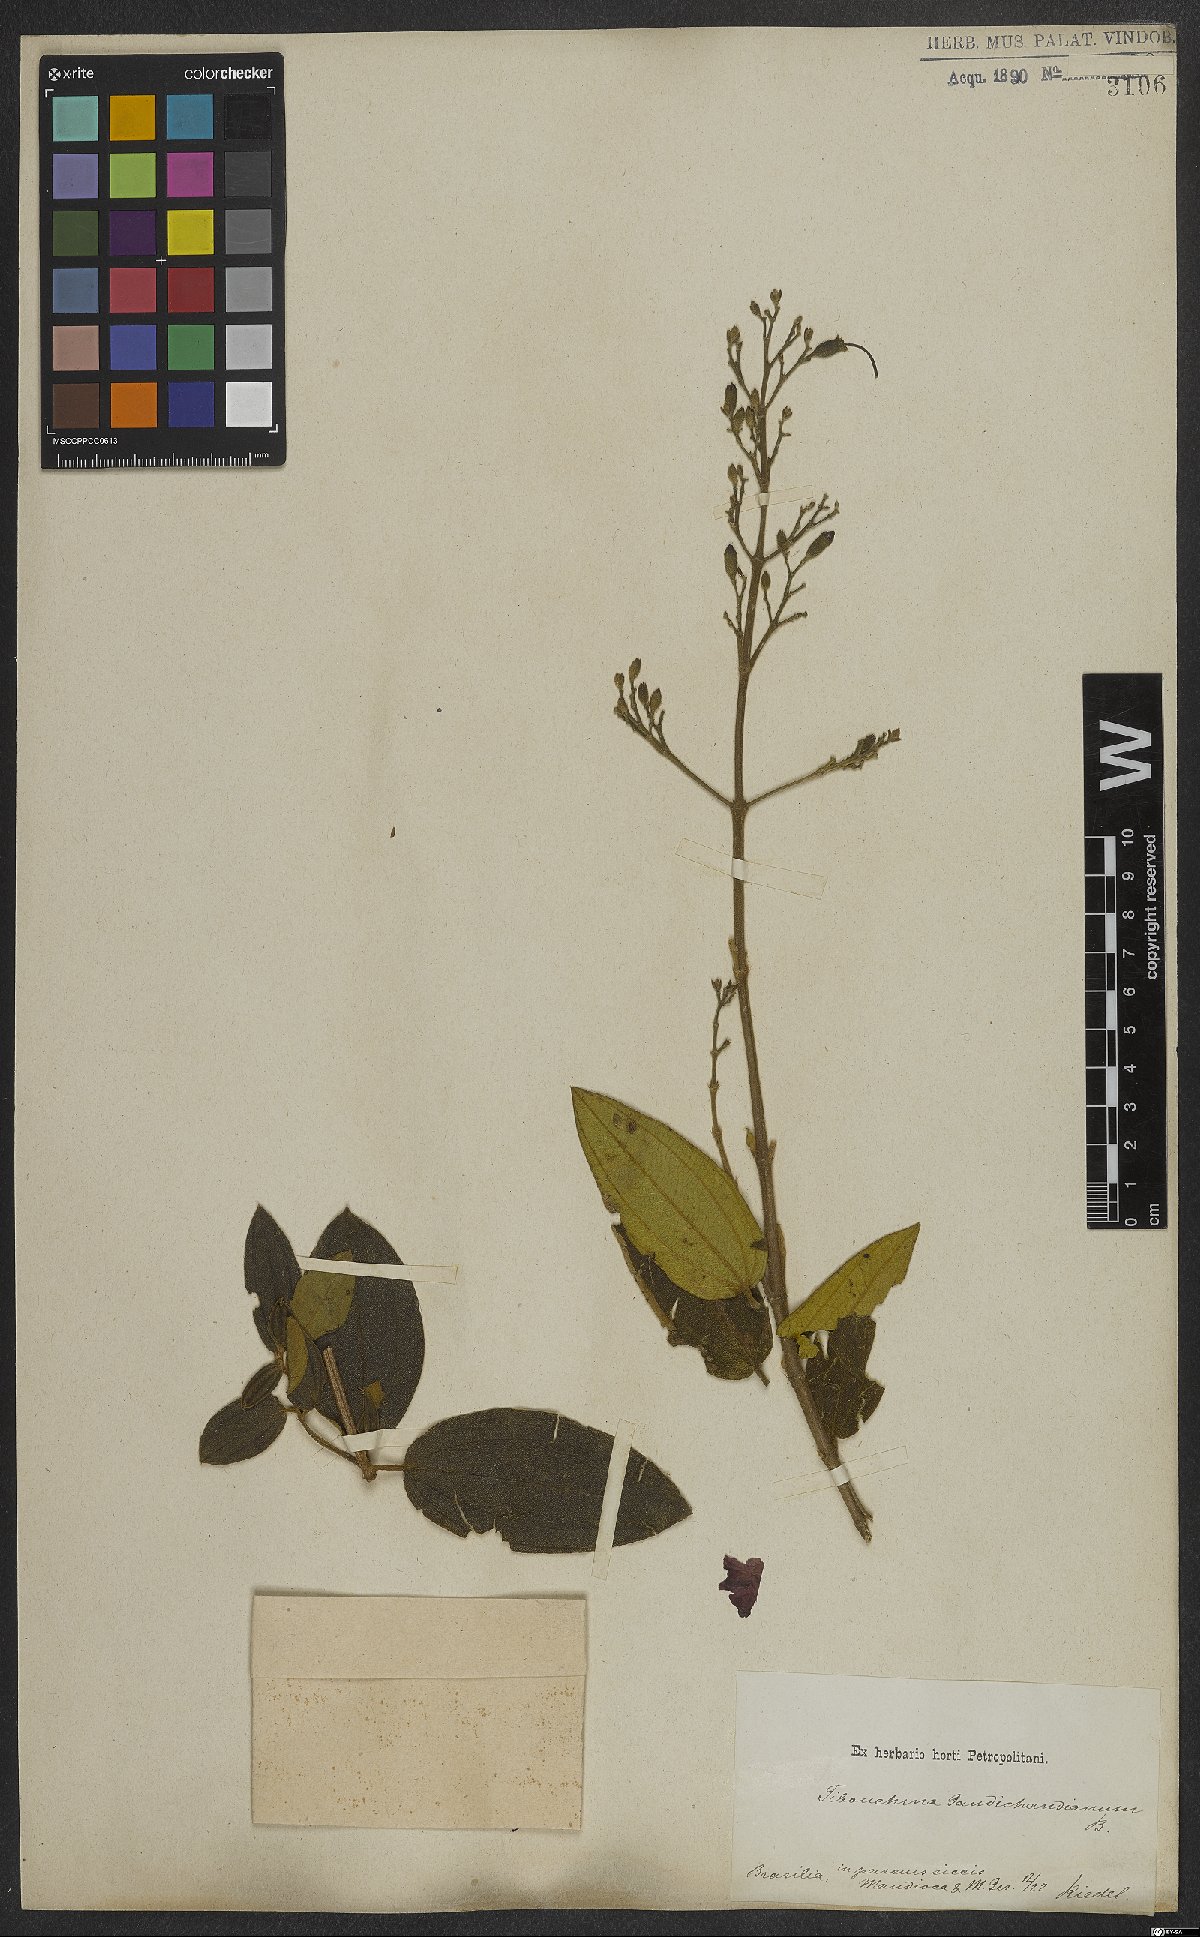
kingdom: Plantae
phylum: Tracheophyta
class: Magnoliopsida
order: Myrtales
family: Melastomataceae
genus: Pleroma
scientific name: Pleroma gaudichaudianum
